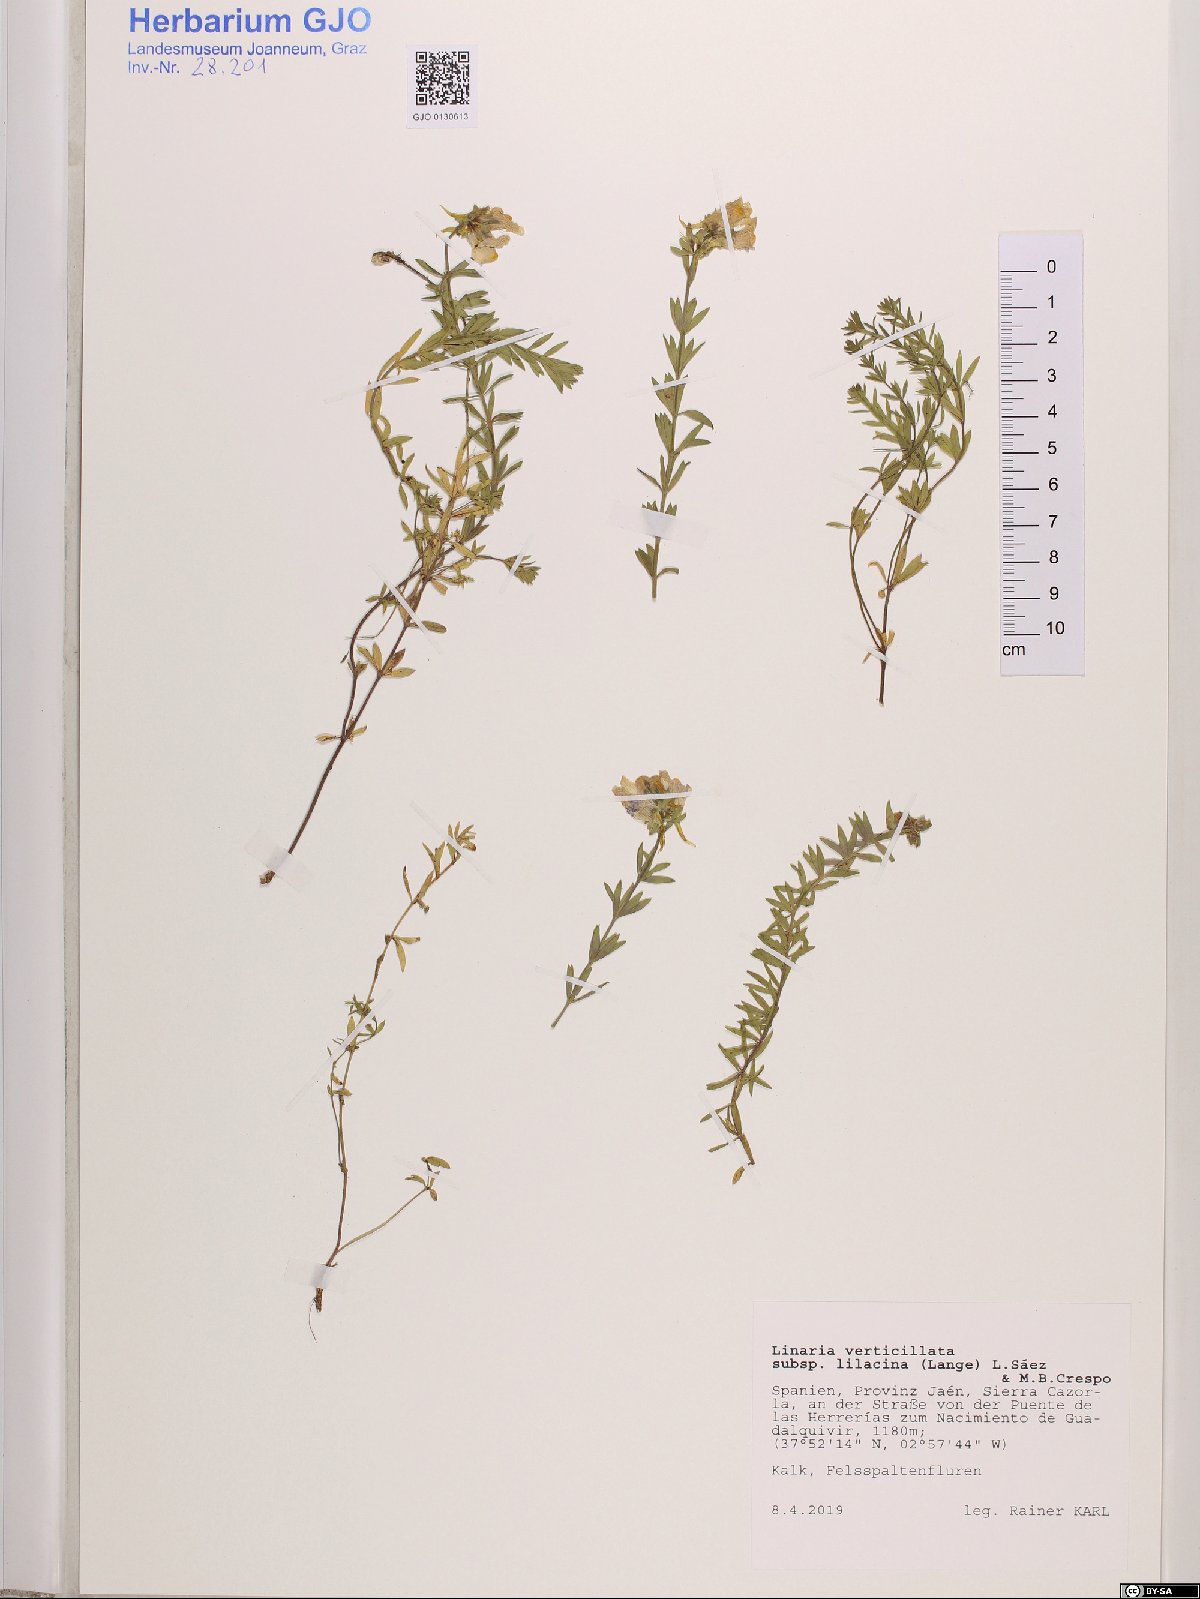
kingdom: Plantae
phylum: Tracheophyta
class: Magnoliopsida
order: Lamiales
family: Plantaginaceae
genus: Linaria
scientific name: Linaria verticillata
